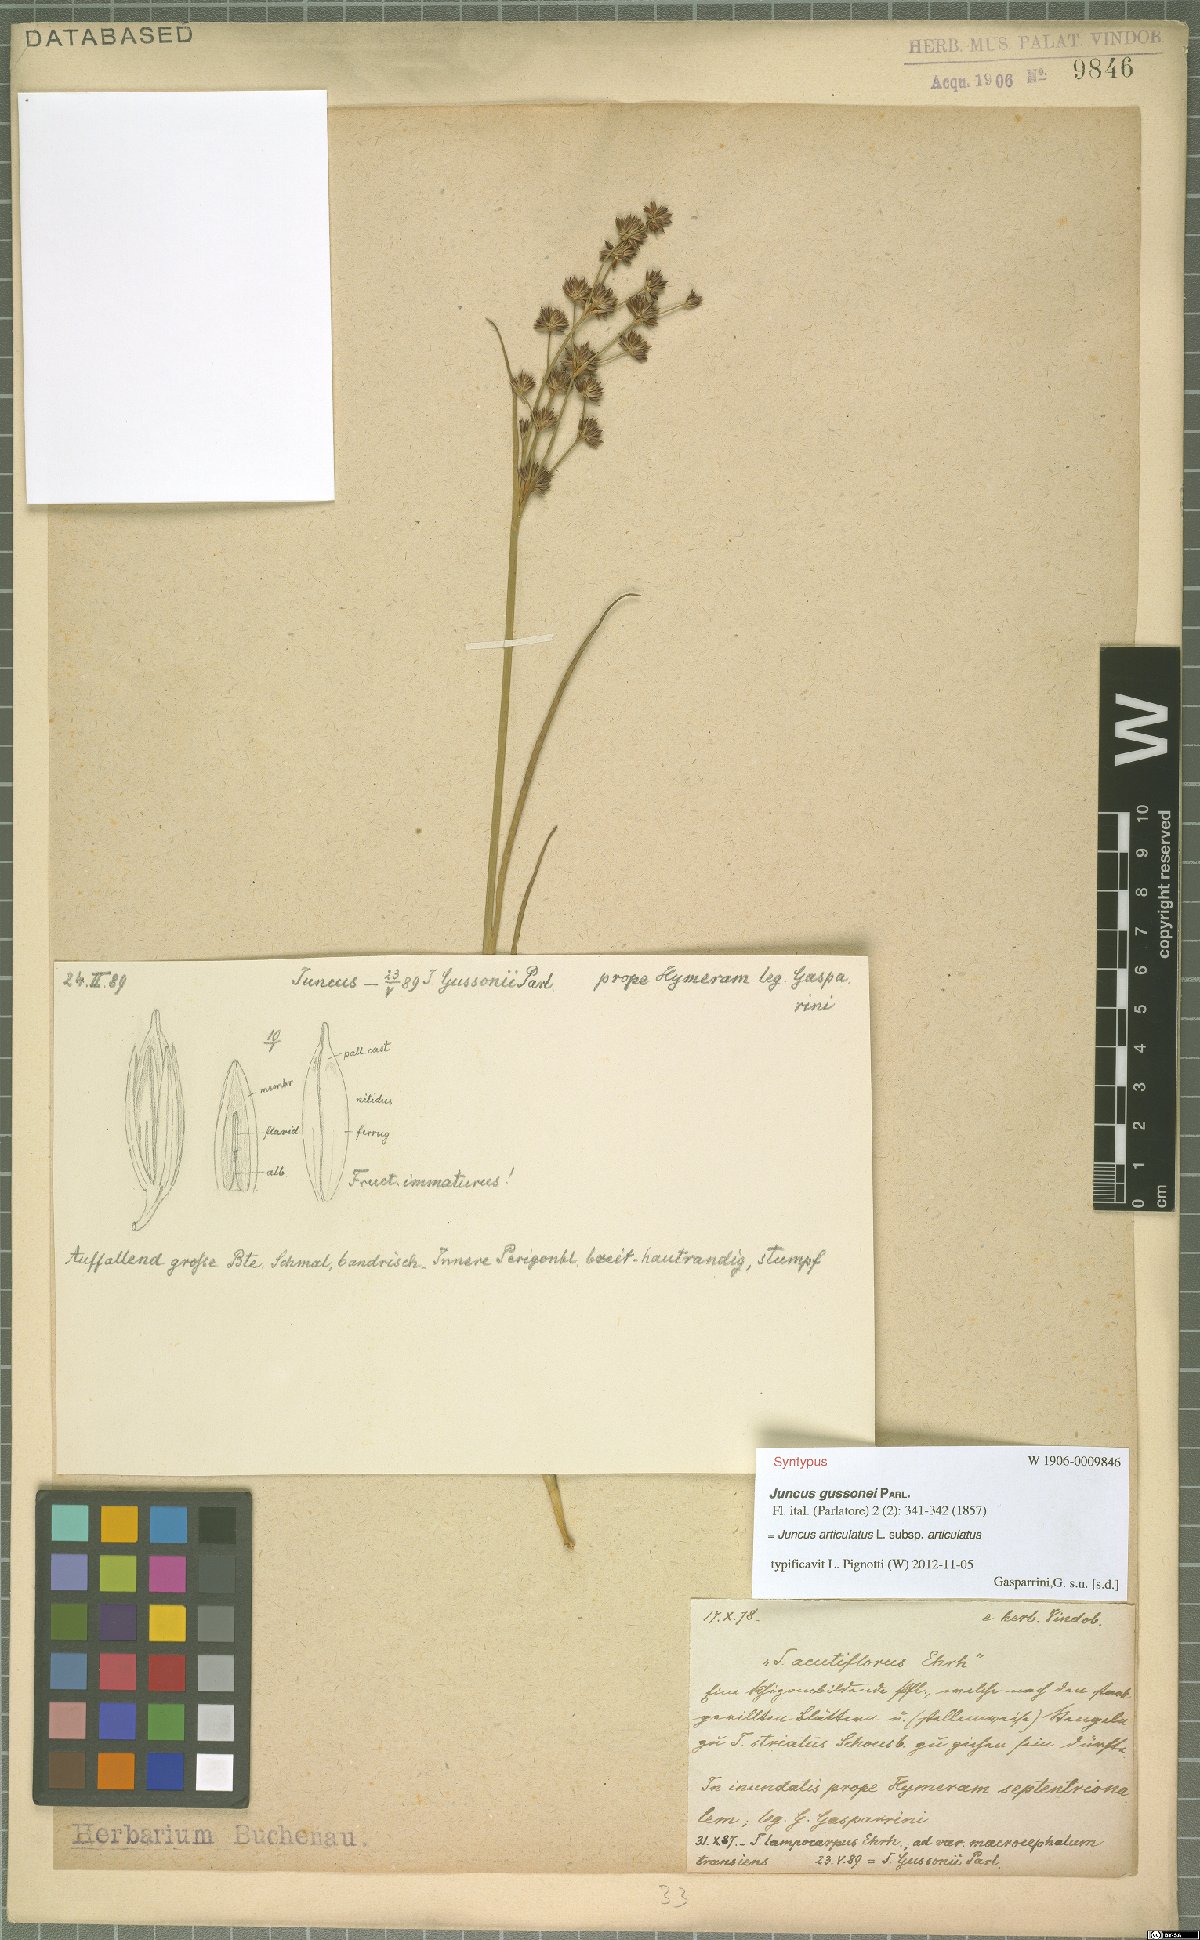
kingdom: Plantae
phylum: Tracheophyta
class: Liliopsida
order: Poales
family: Juncaceae
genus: Juncus
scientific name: Juncus articulatus
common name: Jointed rush
